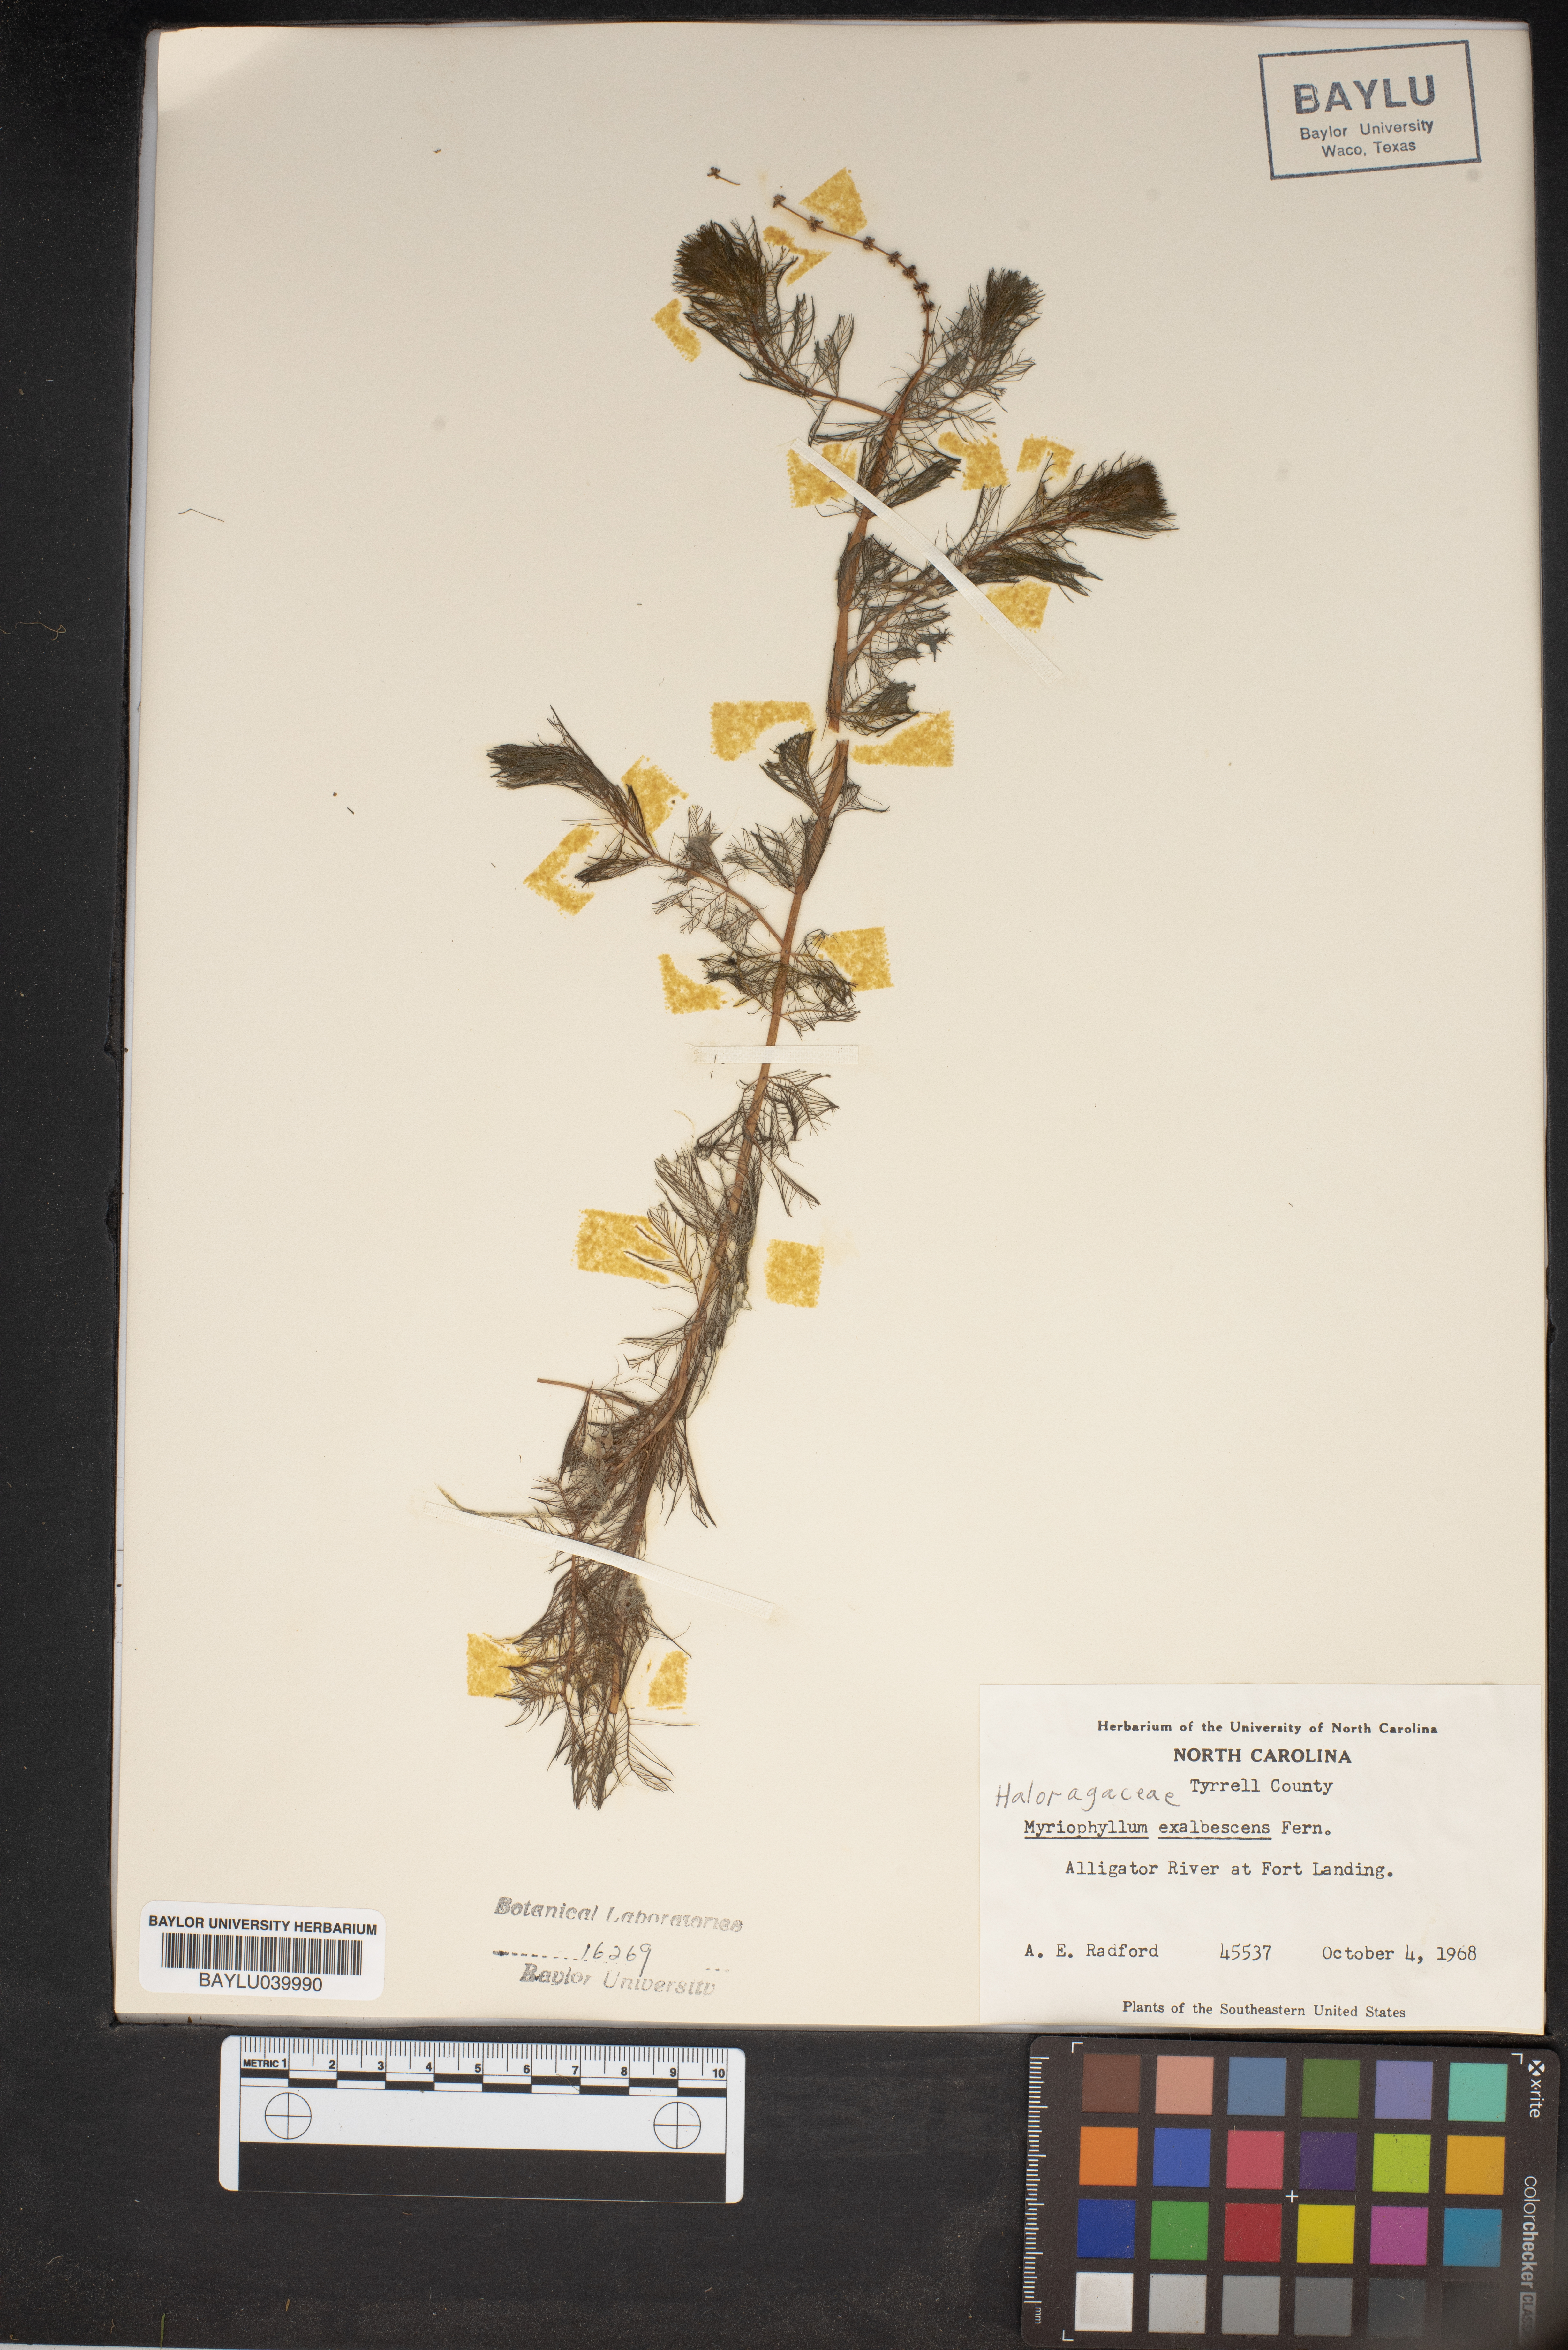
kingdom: Plantae
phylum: Tracheophyta
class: Magnoliopsida
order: Saxifragales
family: Haloragaceae
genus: Myriophyllum
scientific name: Myriophyllum sibiricum
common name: Siberian water-milfoil
